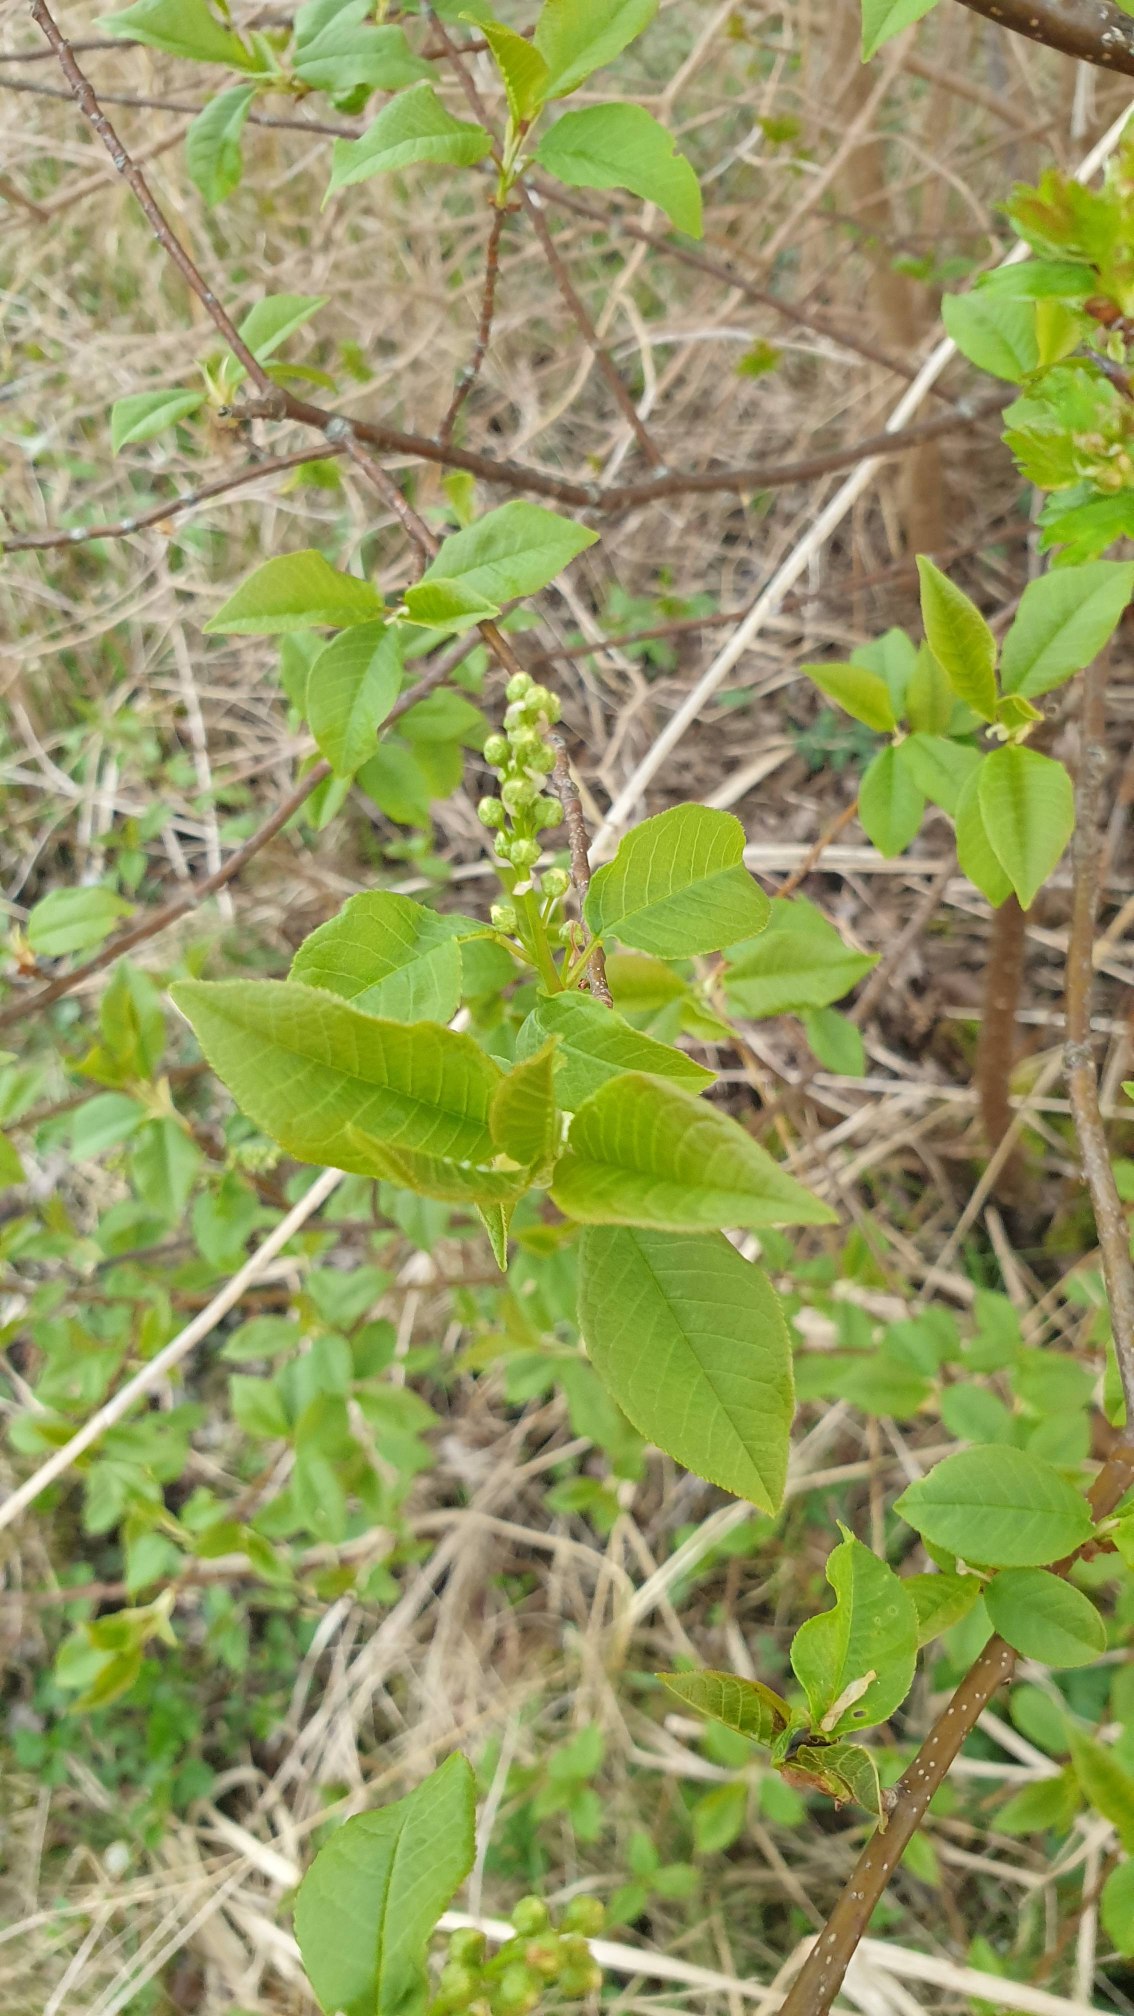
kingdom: Plantae
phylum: Tracheophyta
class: Magnoliopsida
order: Rosales
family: Rosaceae
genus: Prunus
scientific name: Prunus padus
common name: Almindelig hæg
